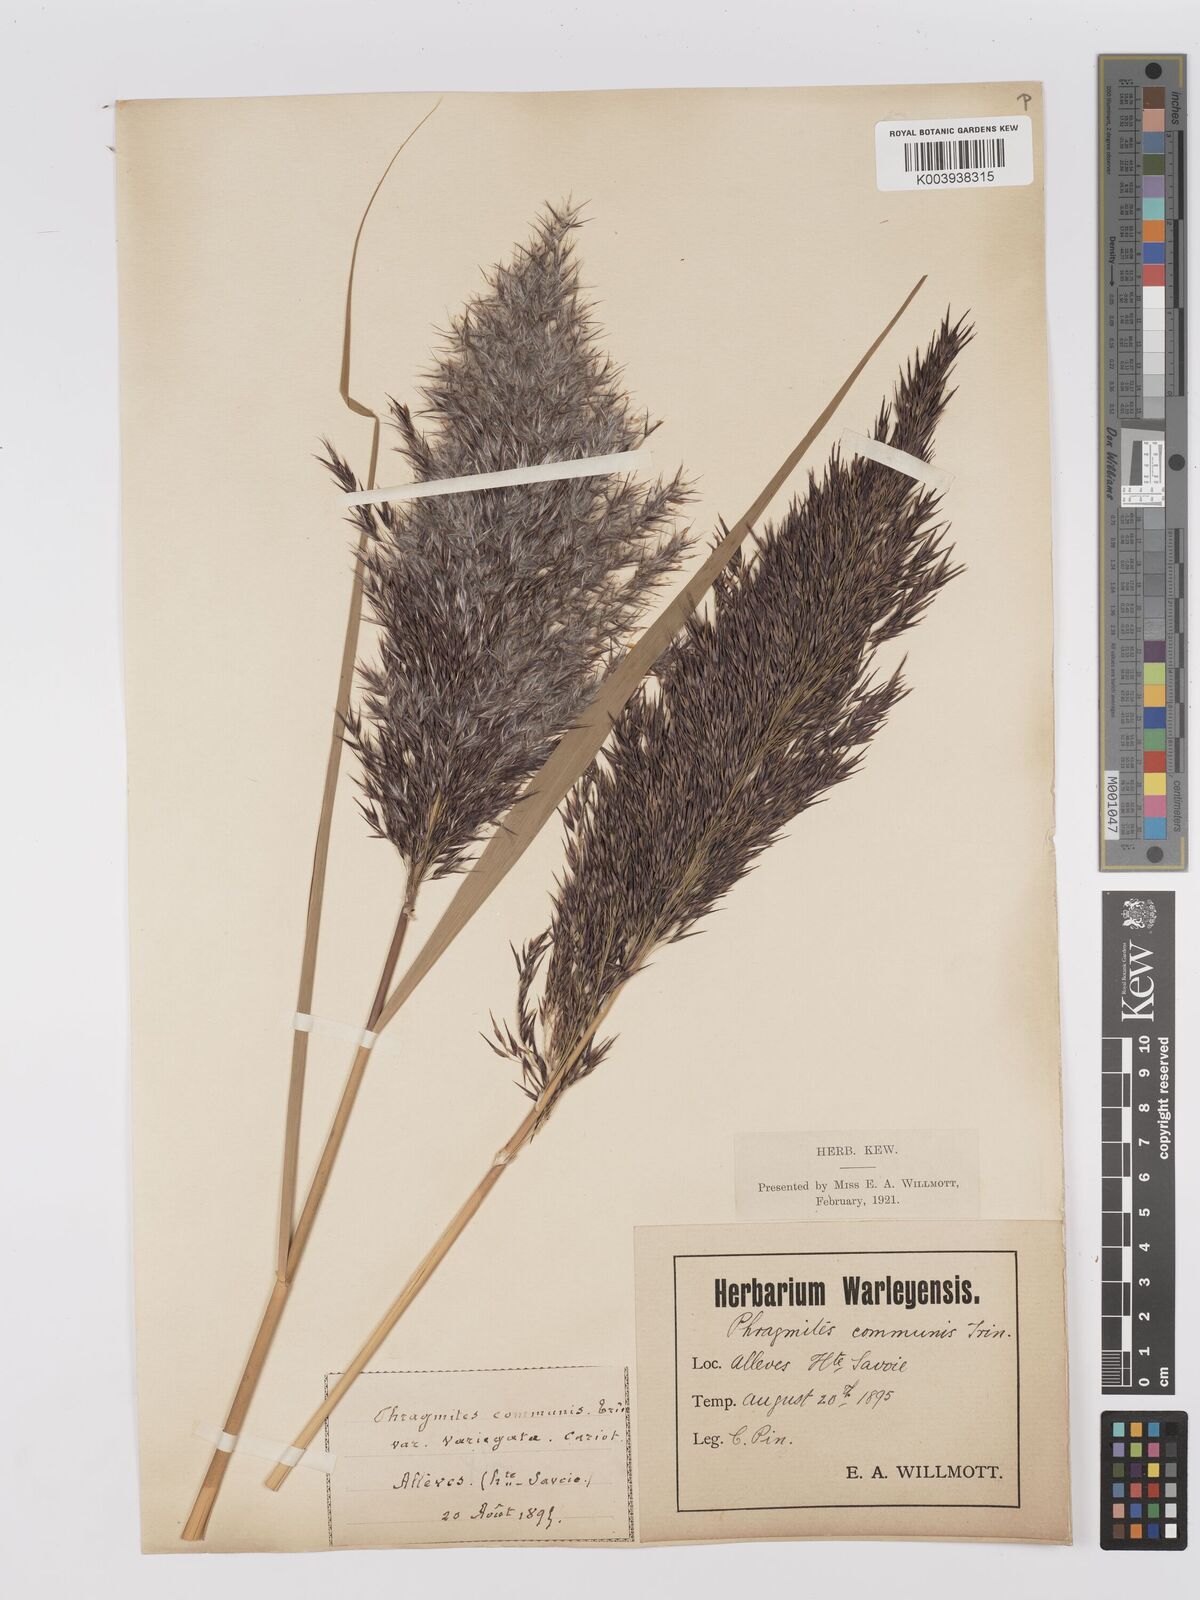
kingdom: Plantae
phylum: Tracheophyta
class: Liliopsida
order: Poales
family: Poaceae
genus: Phragmites
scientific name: Phragmites australis
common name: Common reed
